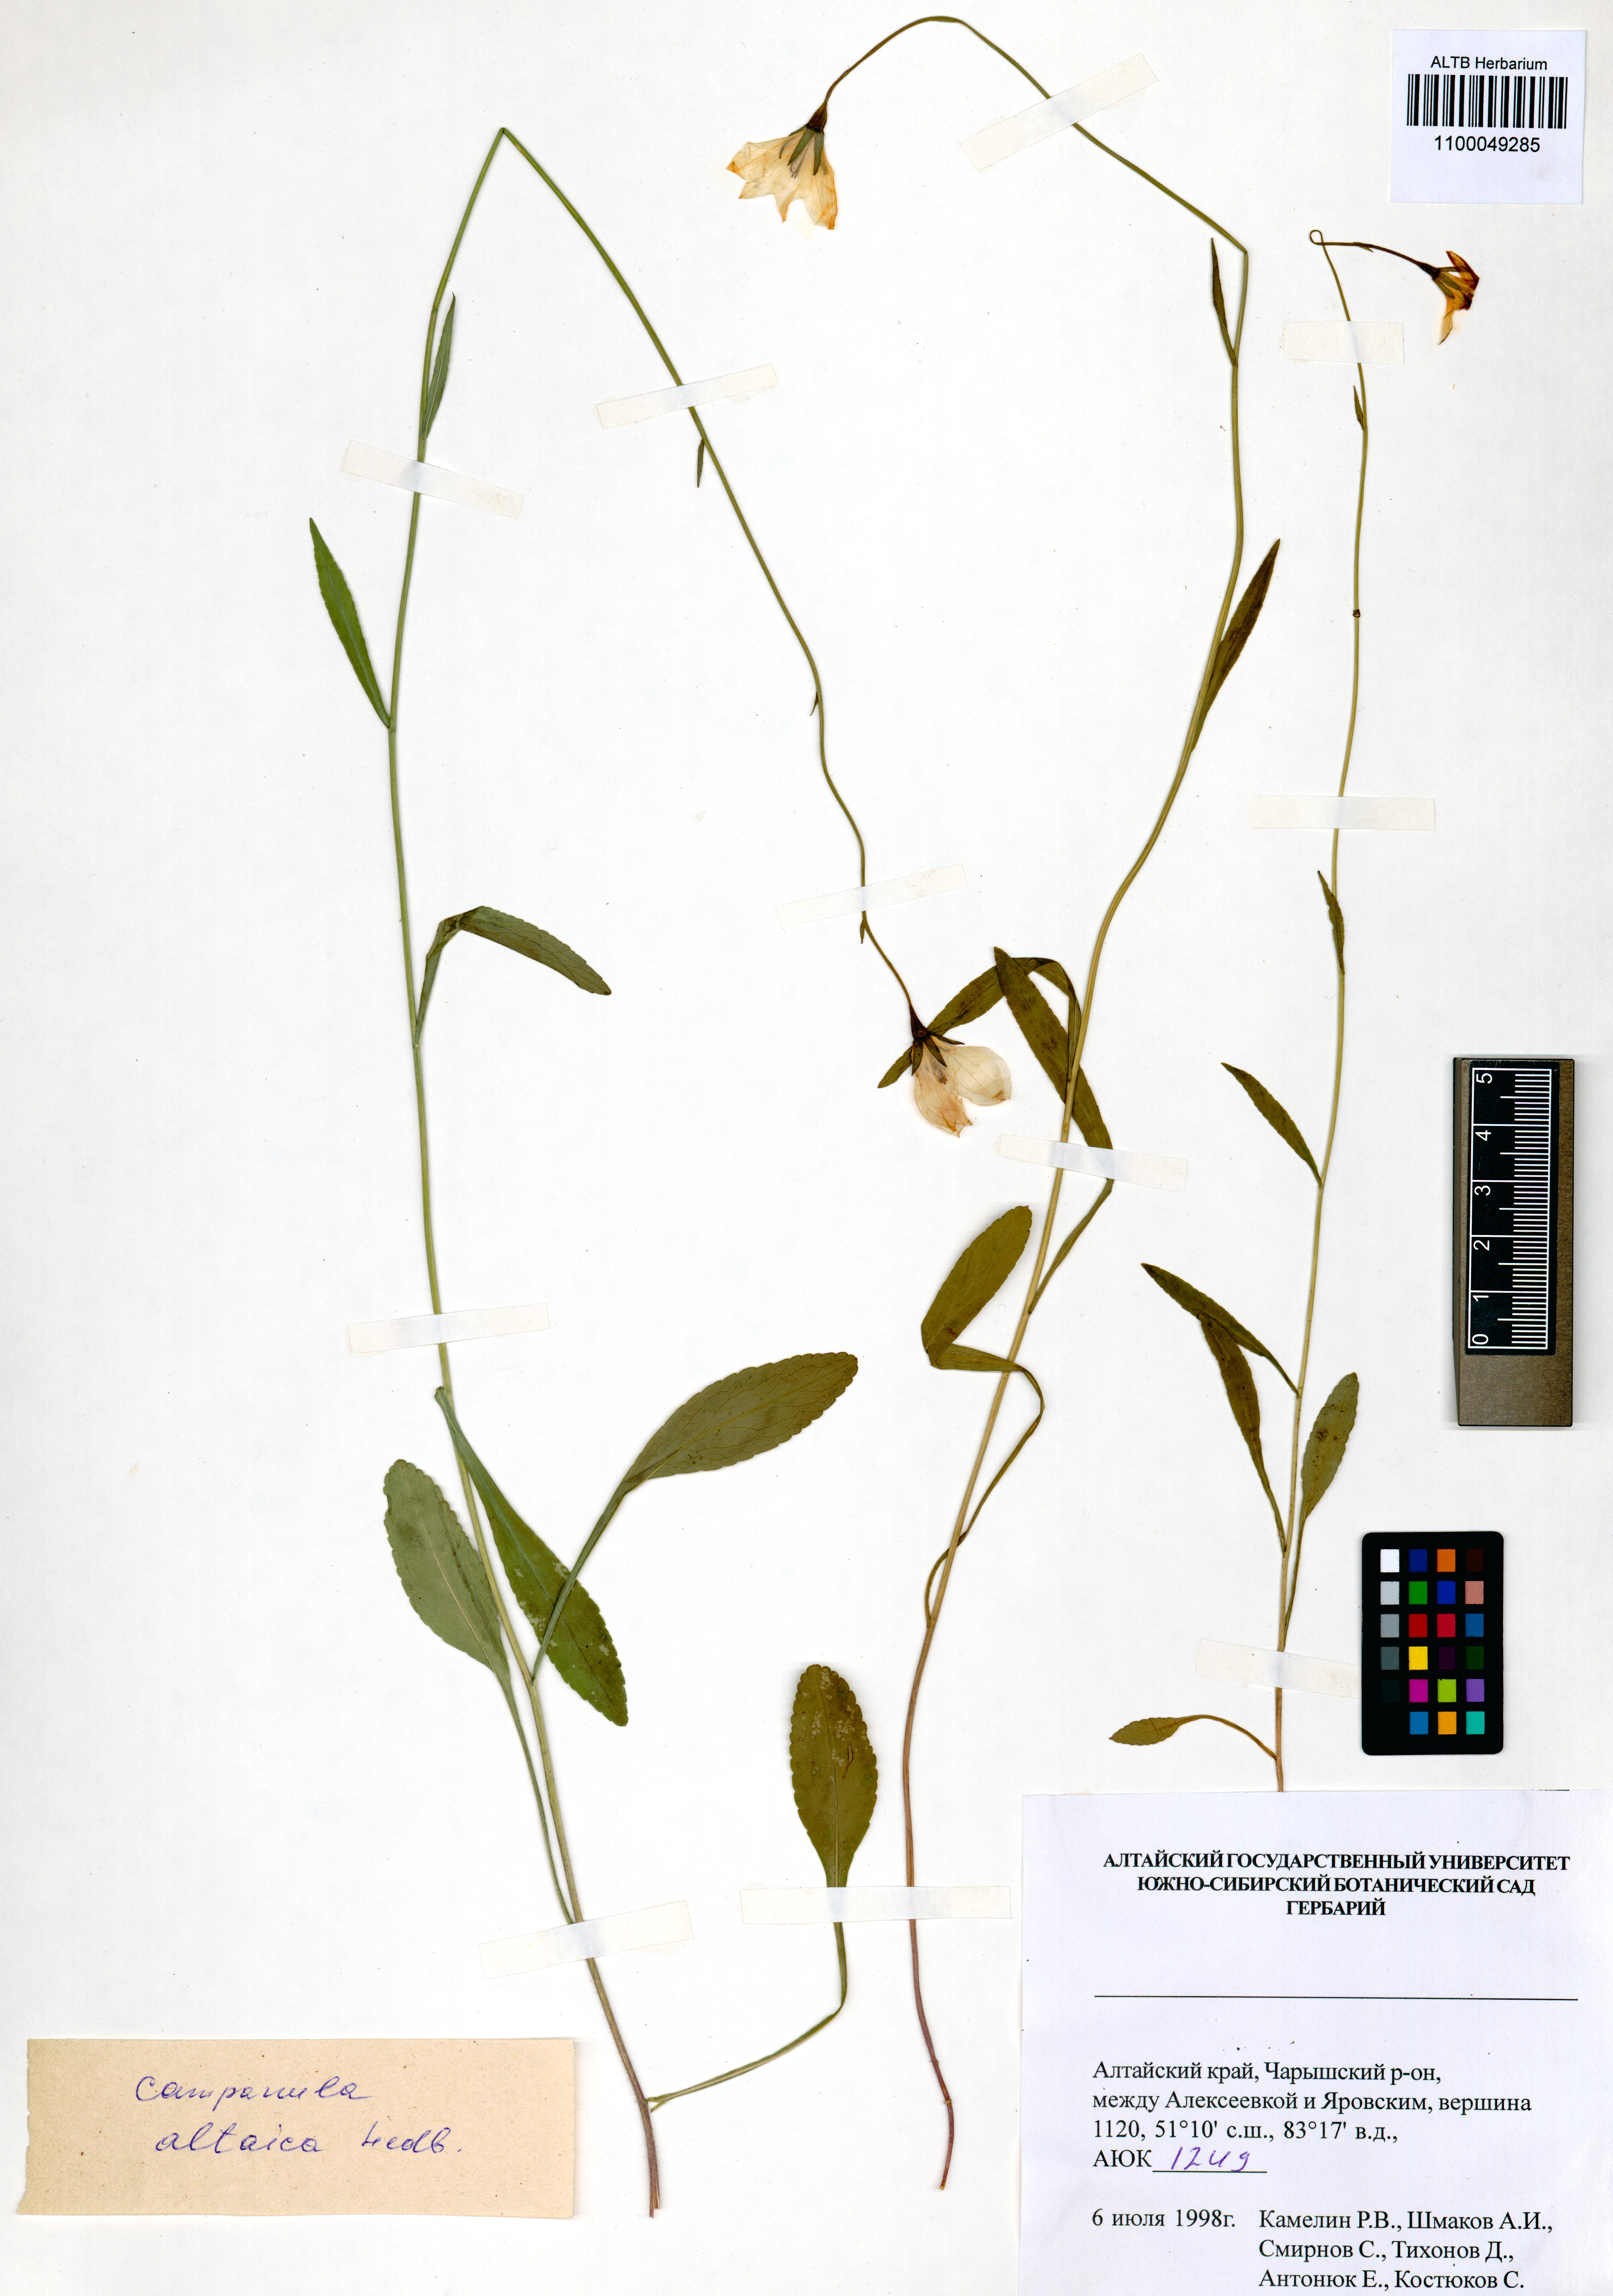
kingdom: Plantae
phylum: Tracheophyta
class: Magnoliopsida
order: Asterales
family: Campanulaceae
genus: Campanula
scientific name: Campanula stevenii
